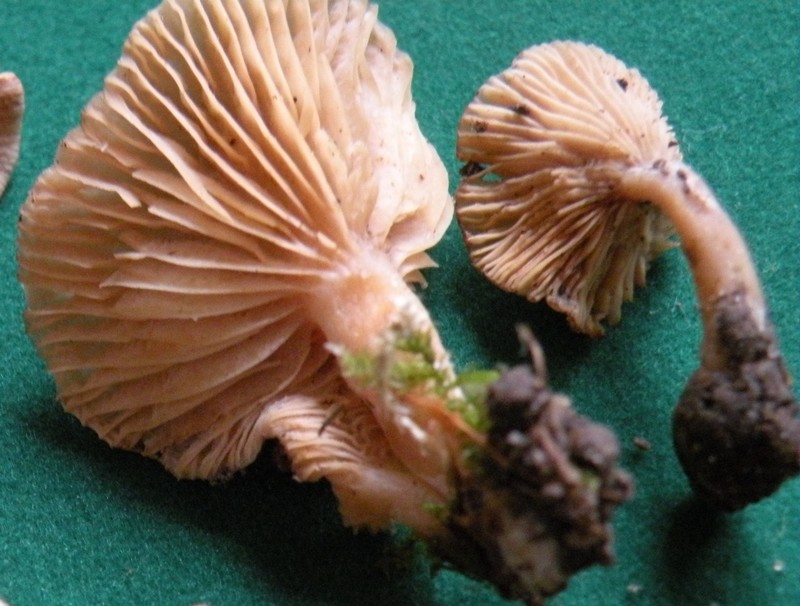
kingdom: Fungi
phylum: Basidiomycota
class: Agaricomycetes
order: Russulales
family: Russulaceae
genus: Lactarius
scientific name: Lactarius glyciosmus
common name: kokos-mælkehat
